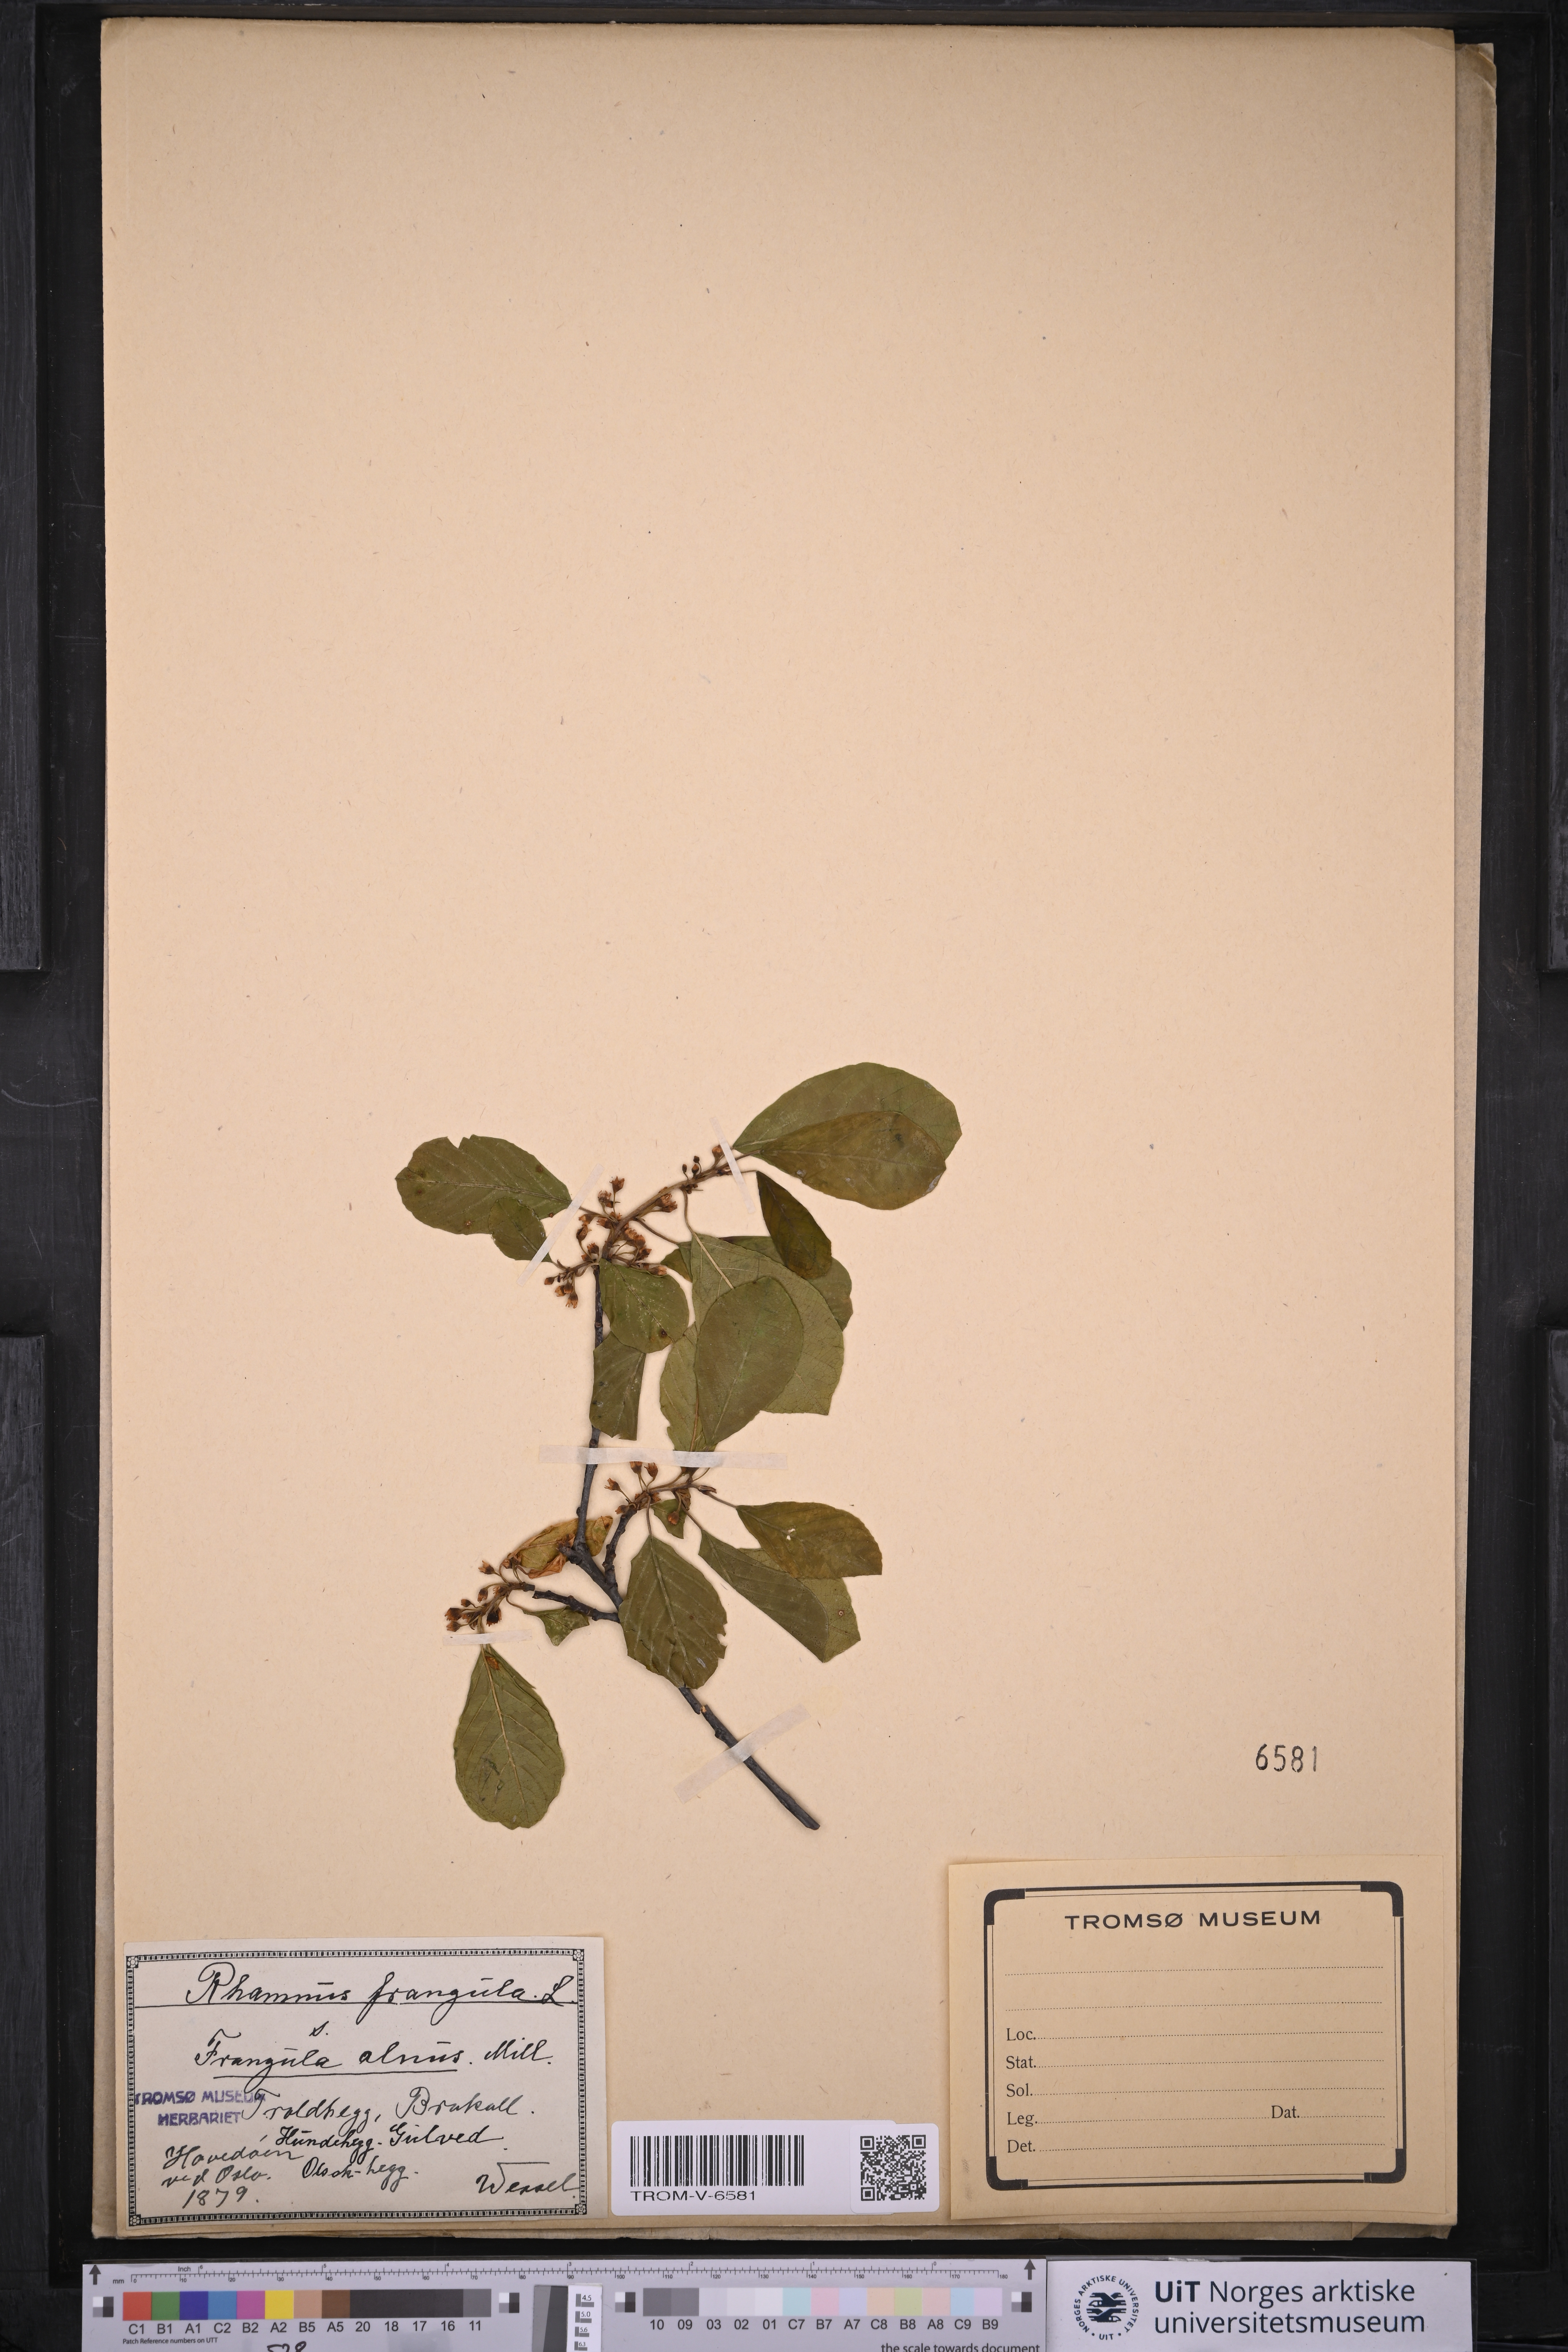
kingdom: Plantae
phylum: Tracheophyta
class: Magnoliopsida
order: Rosales
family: Rhamnaceae
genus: Frangula
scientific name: Frangula alnus
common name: Alder buckthorn
